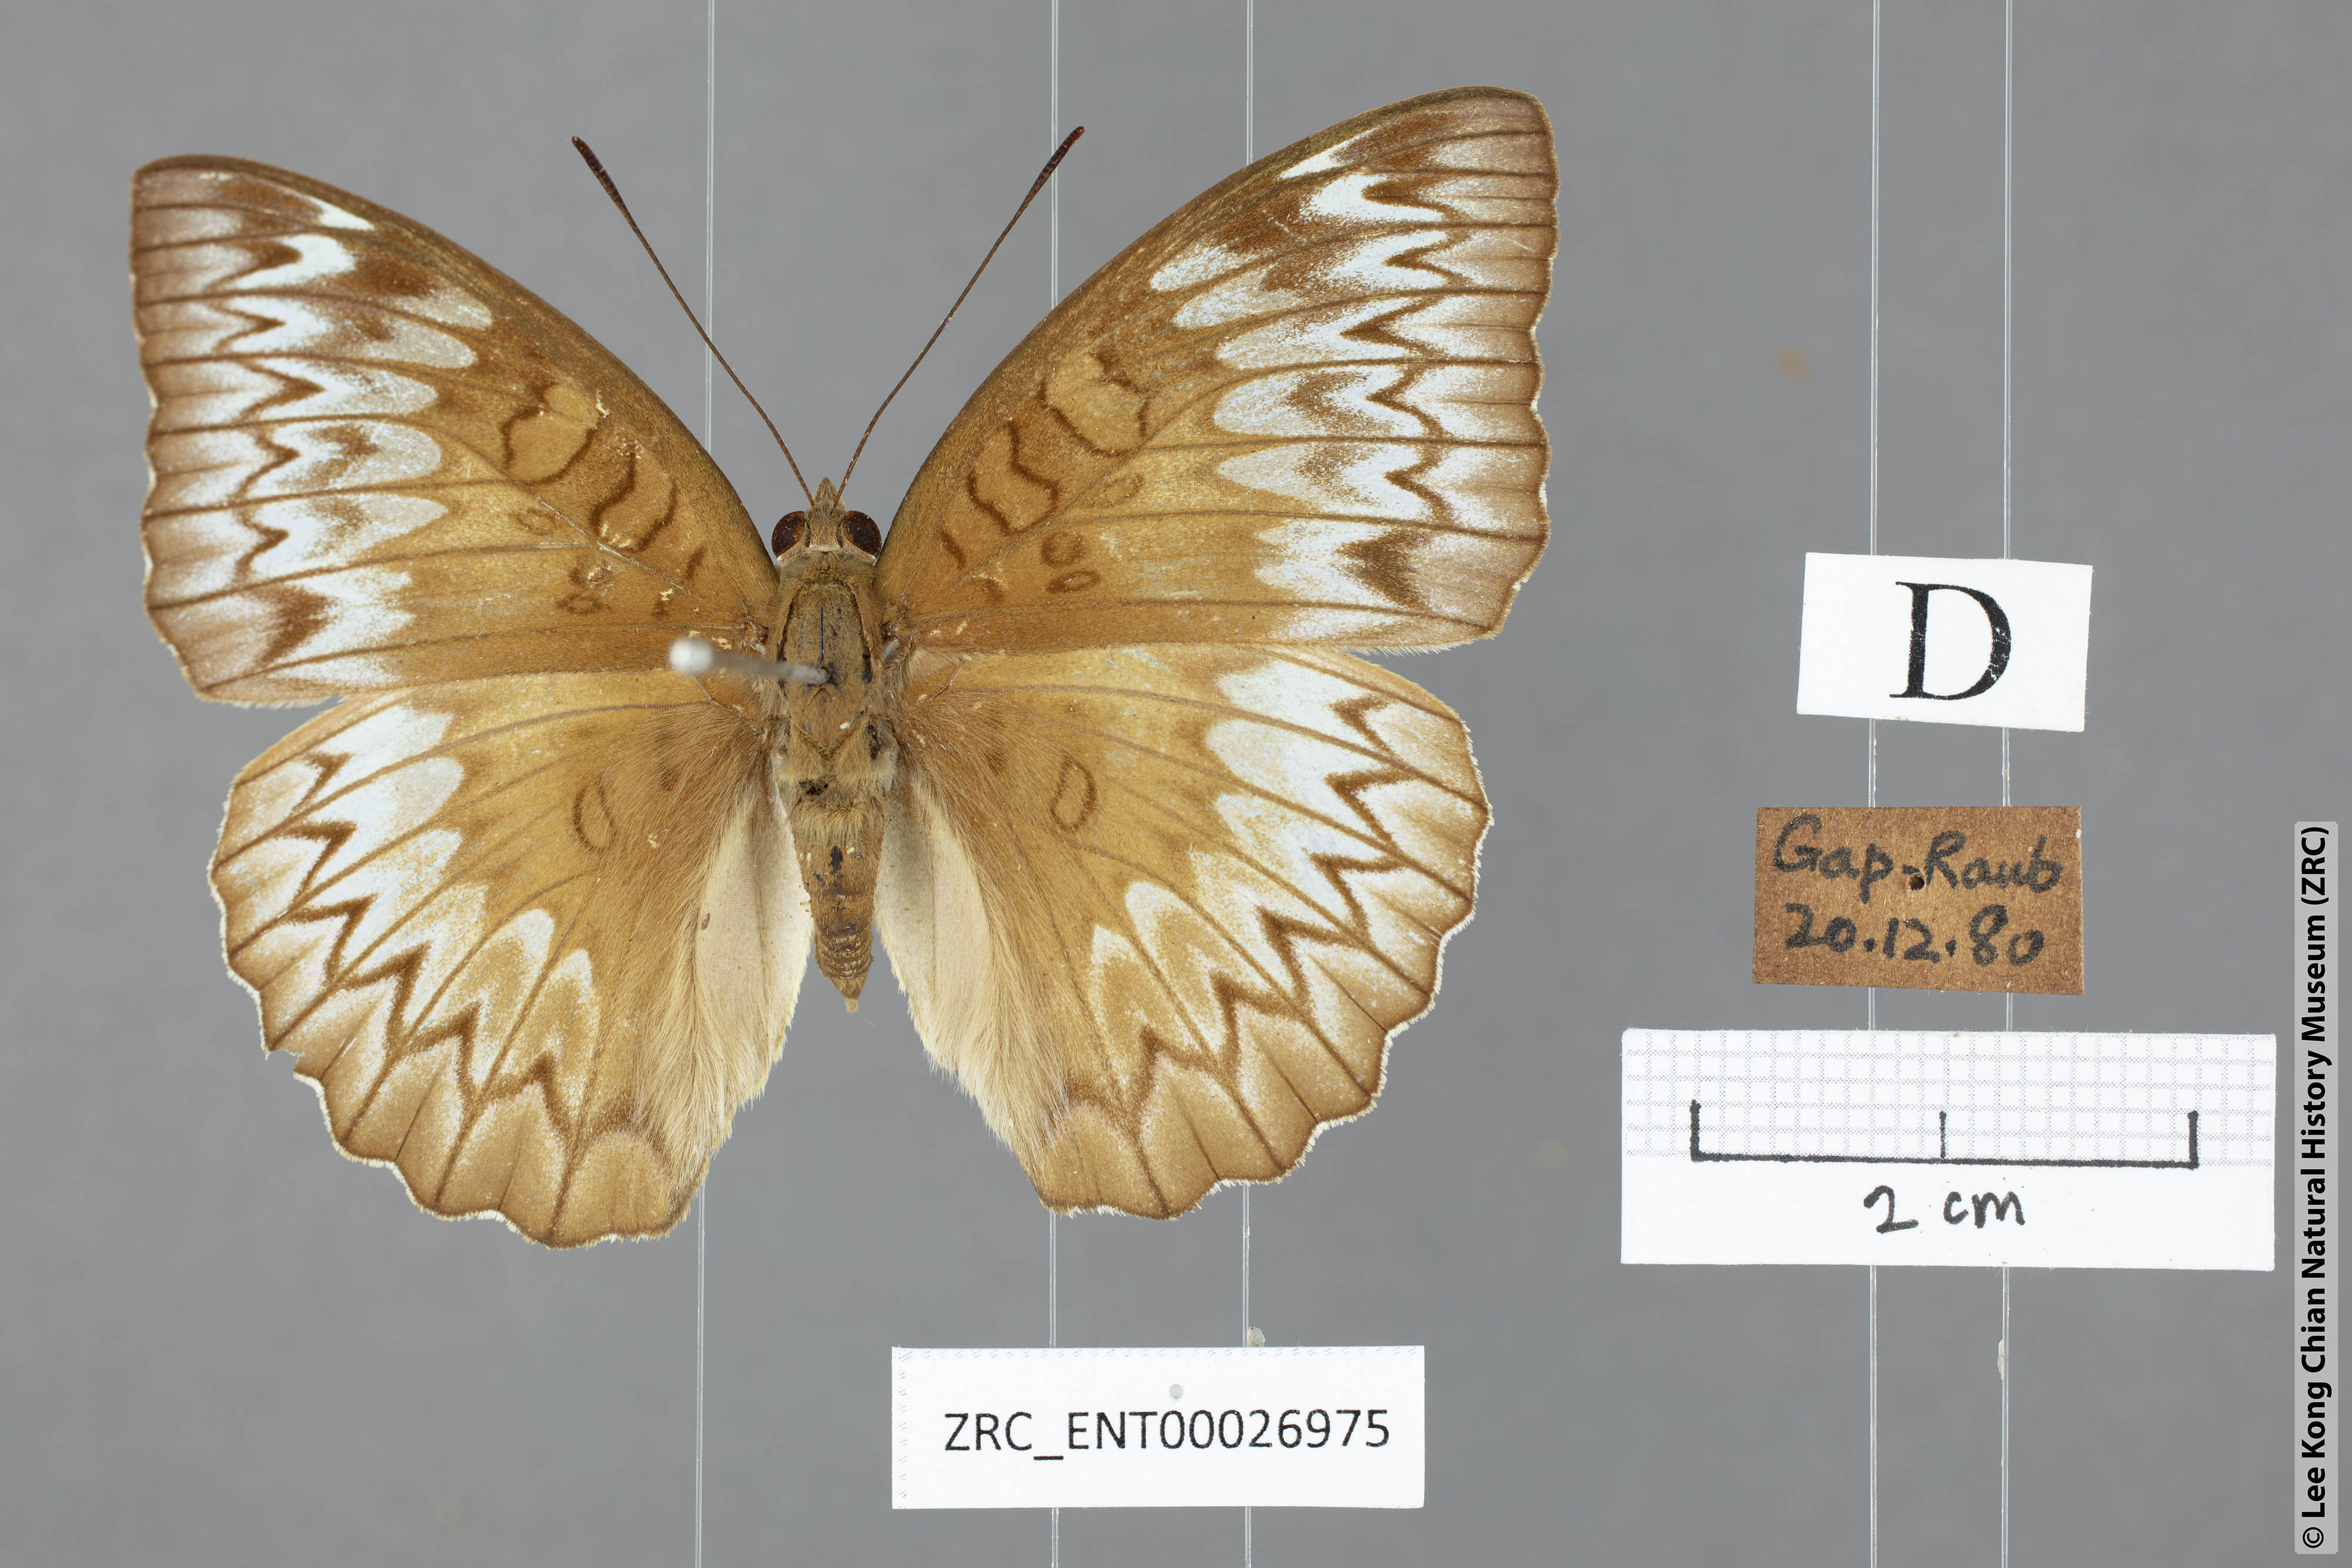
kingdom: Animalia
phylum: Arthropoda
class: Insecta
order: Lepidoptera
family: Nymphalidae
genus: Euthalia
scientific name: Euthalia monina
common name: Powdered baron
